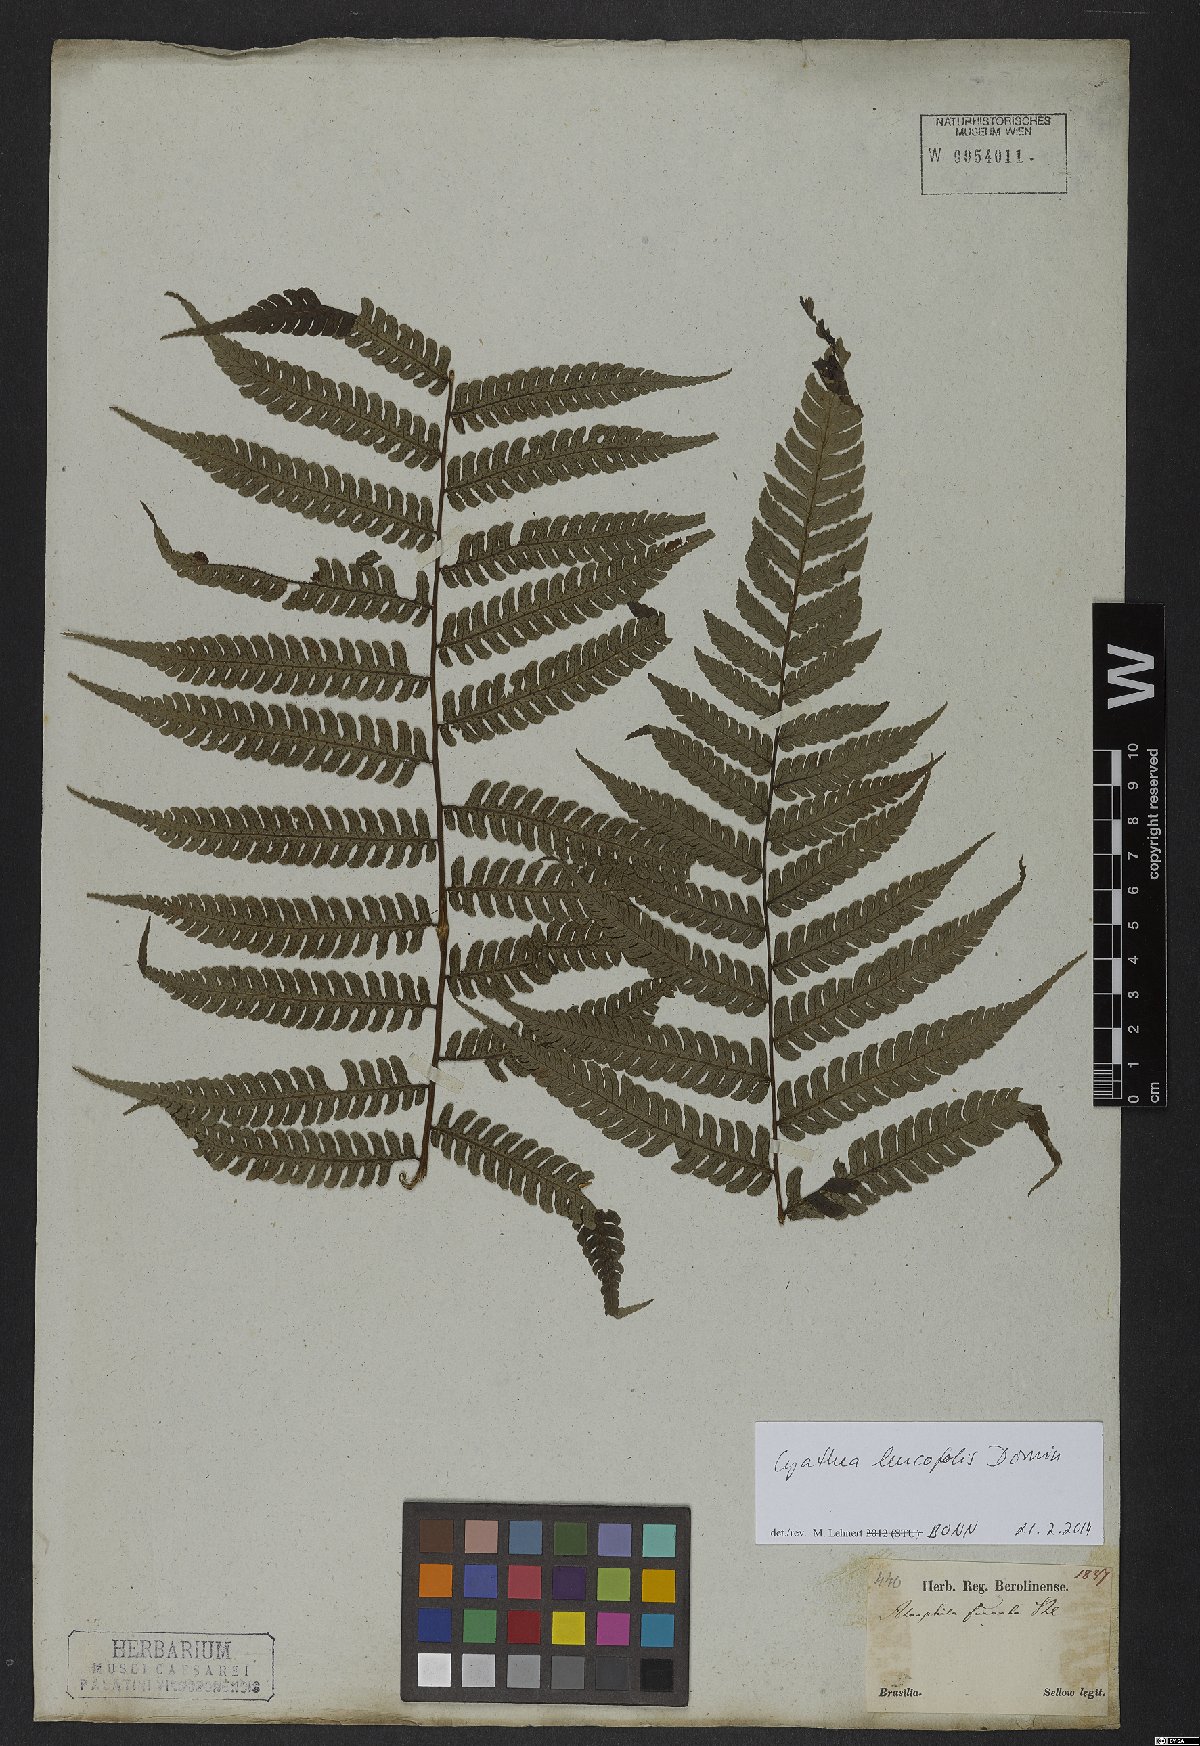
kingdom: Plantae
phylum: Tracheophyta
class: Polypodiopsida
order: Cyatheales
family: Cyatheaceae
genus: Cyathea
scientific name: Cyathea leucofolis
